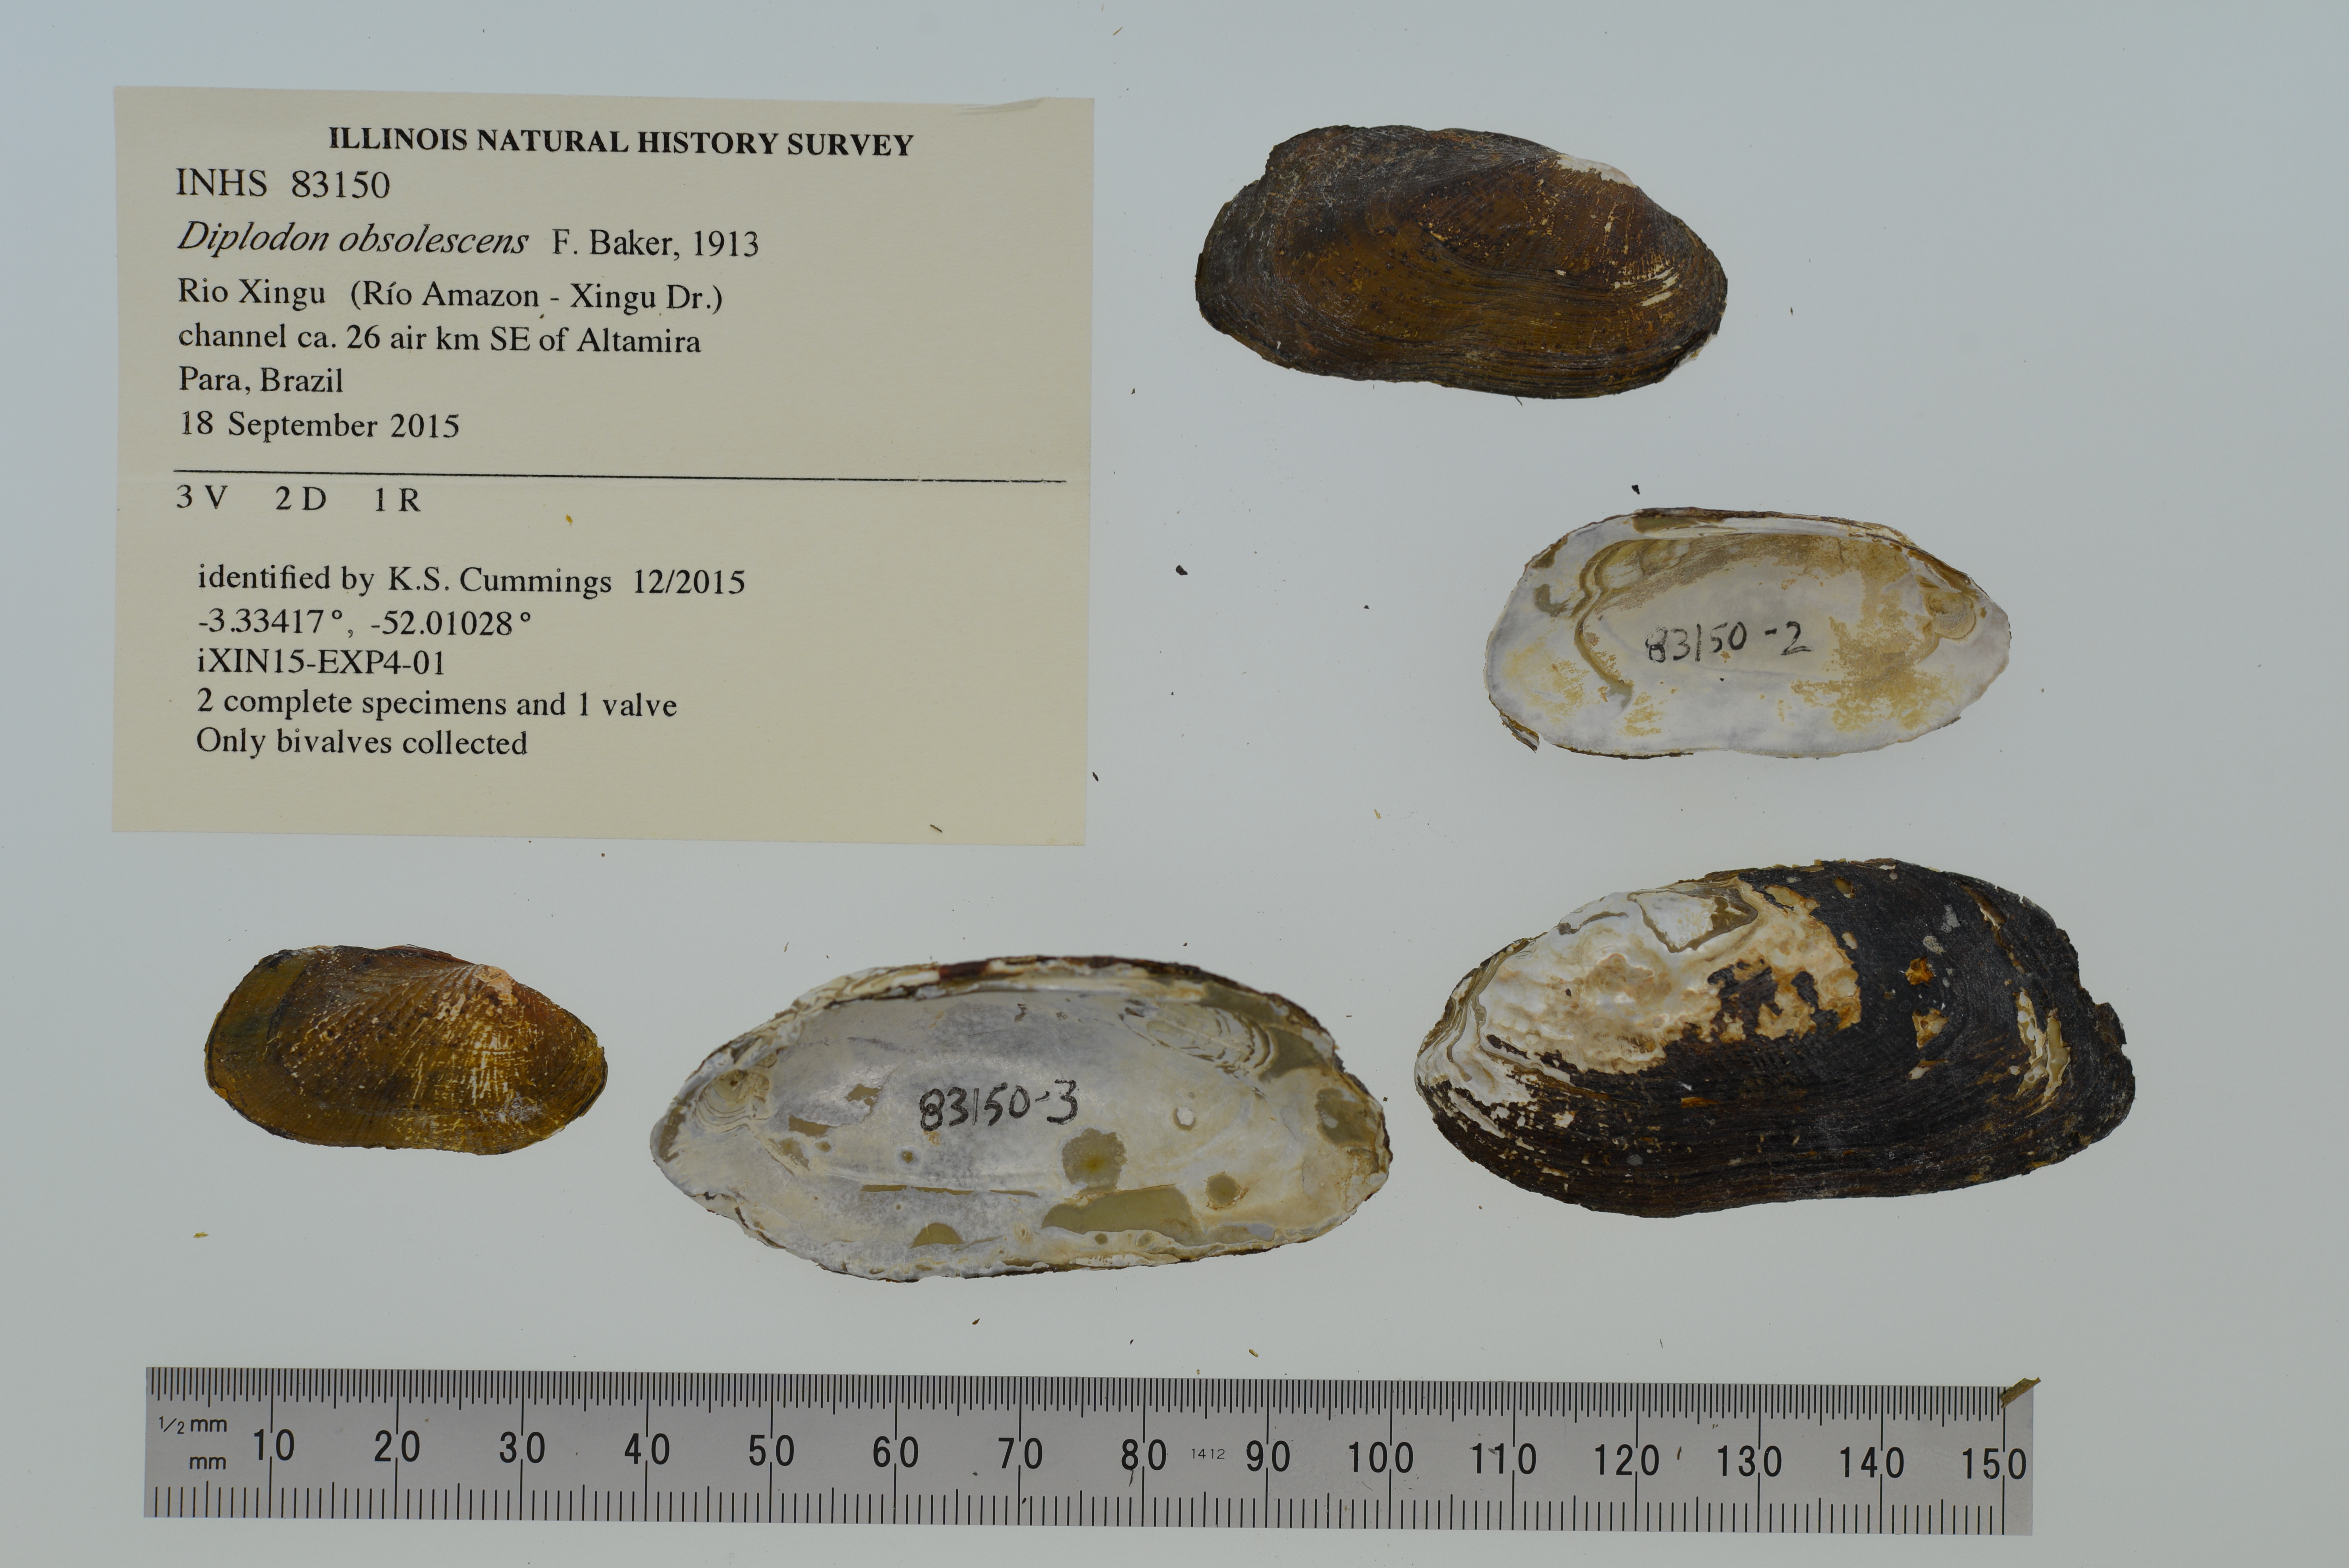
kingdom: Animalia
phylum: Mollusca
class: Bivalvia
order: Unionida
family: Hyriidae
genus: Diplodon
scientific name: Diplodon obsolescens
